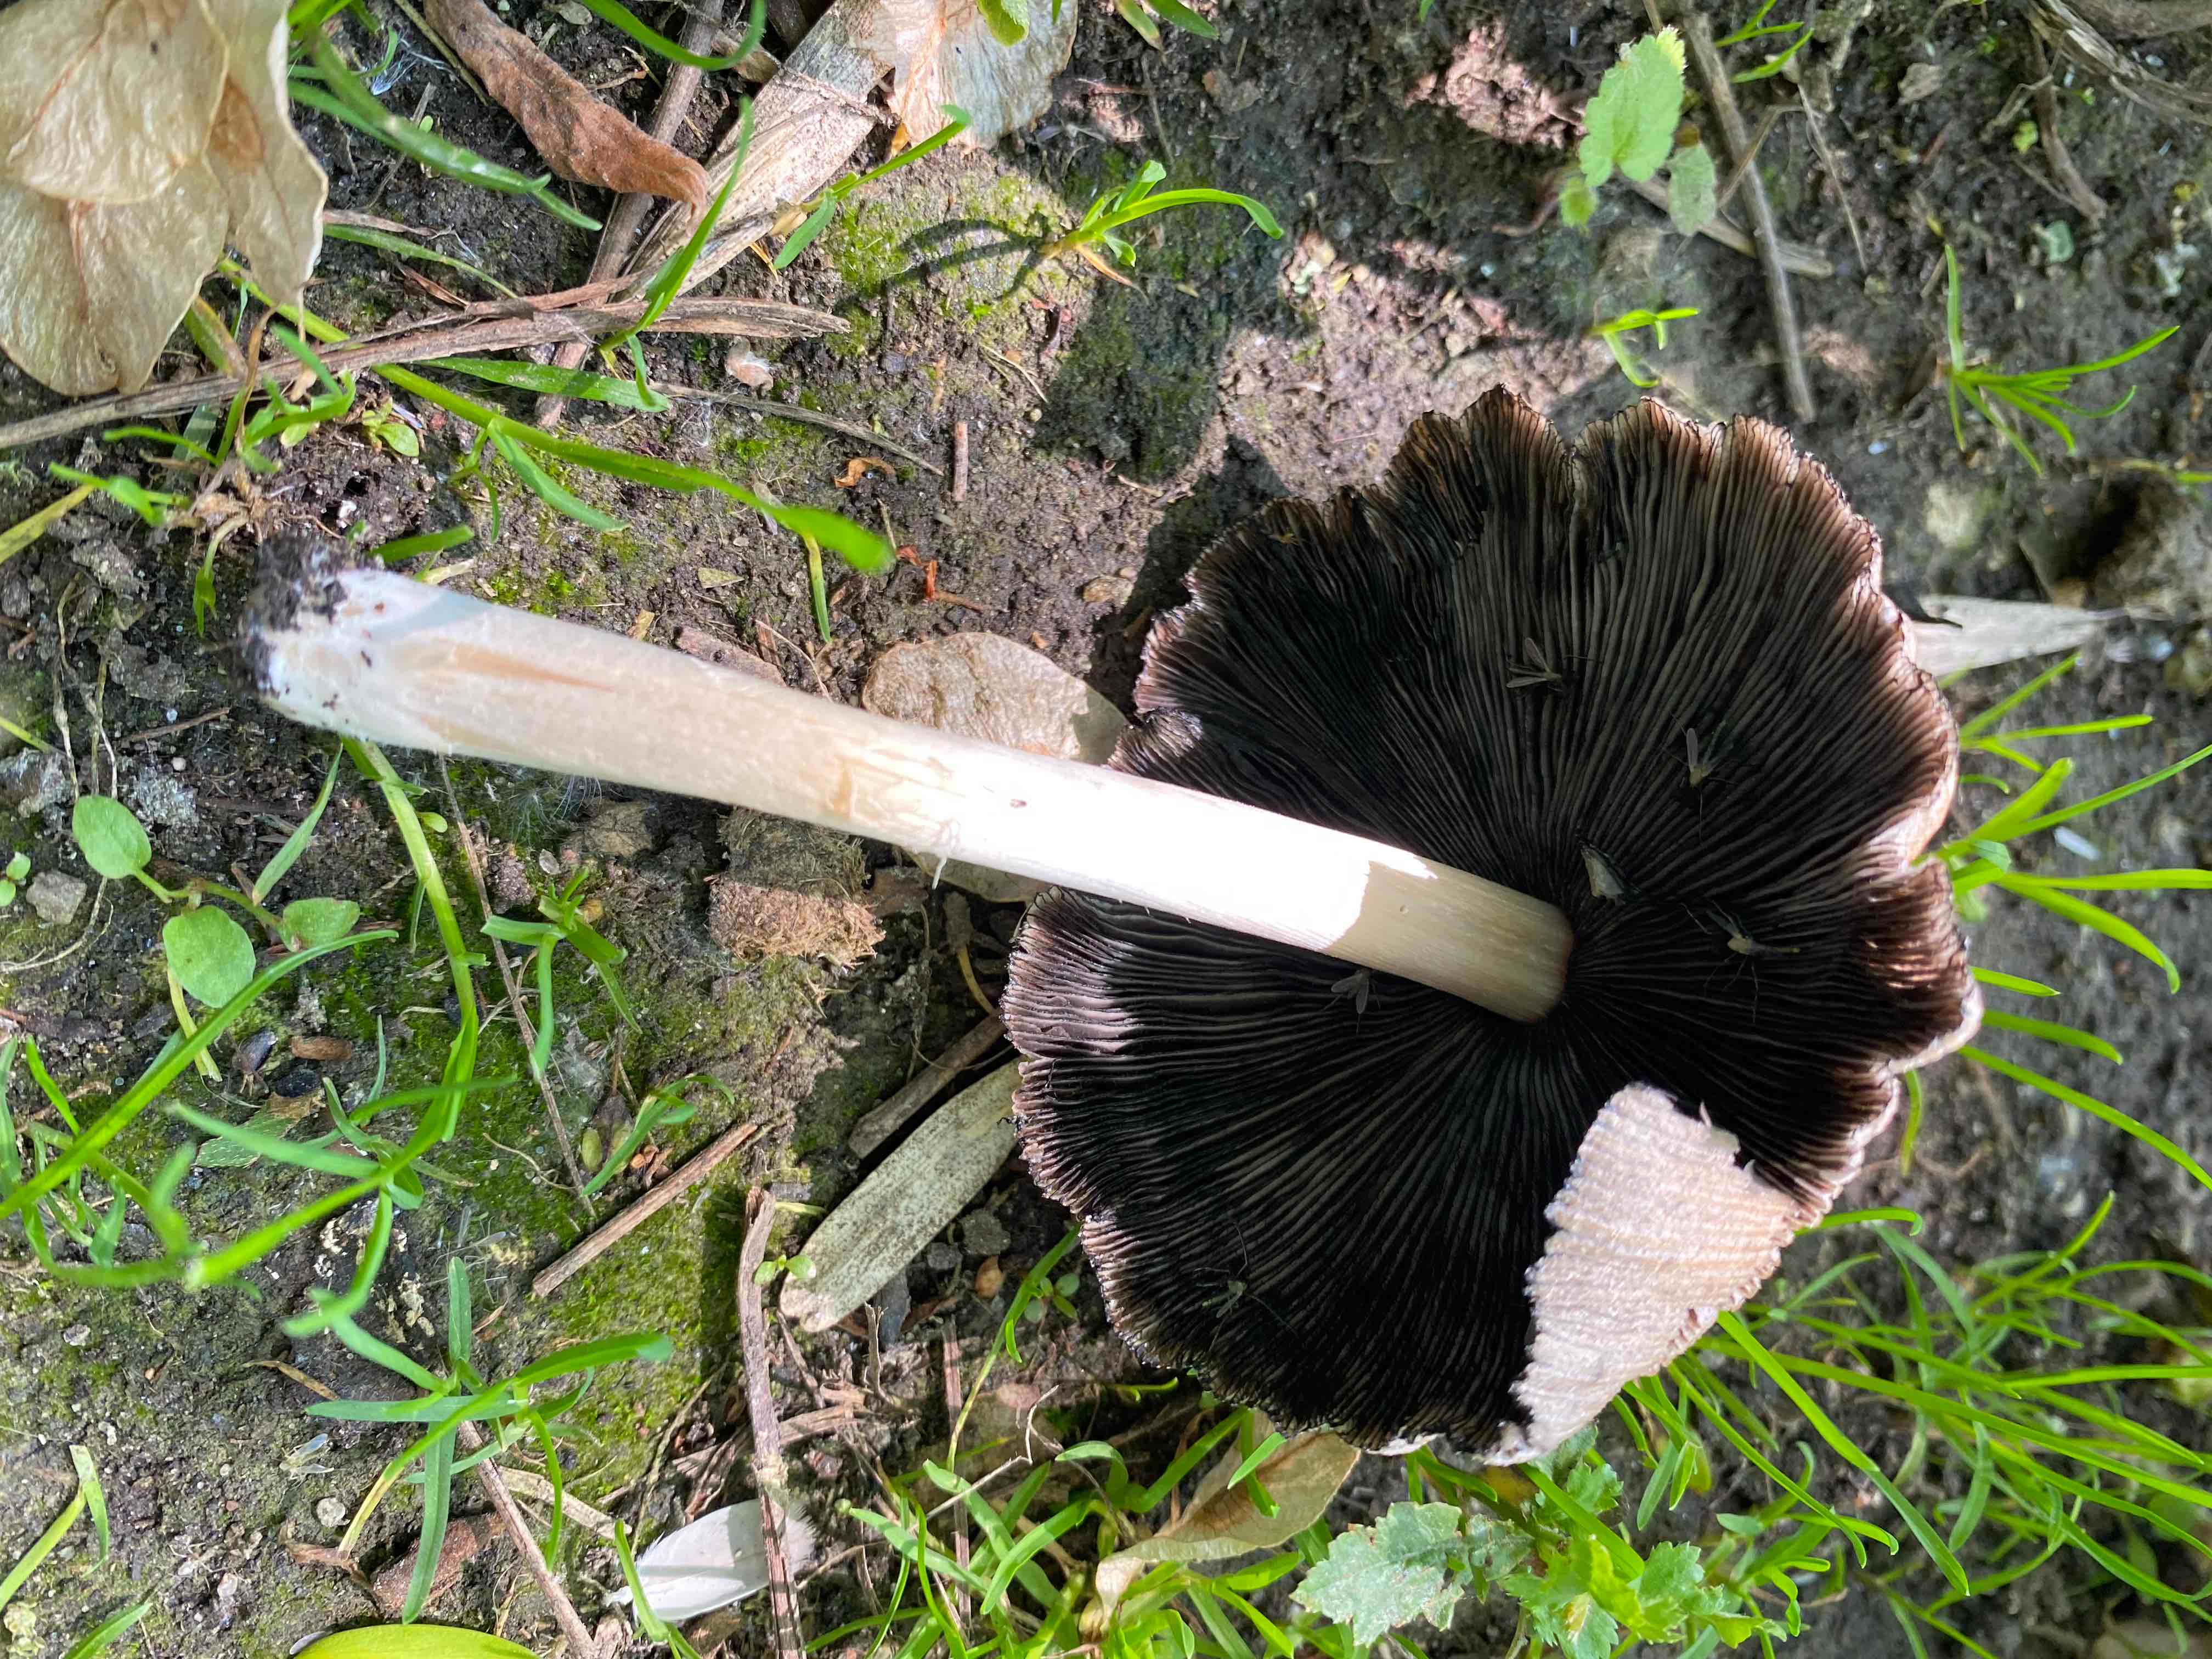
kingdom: Fungi
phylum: Basidiomycota
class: Agaricomycetes
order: Agaricales
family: Psathyrellaceae
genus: Coprinellus
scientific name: Coprinellus micaceus
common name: glimmer-blækhat
